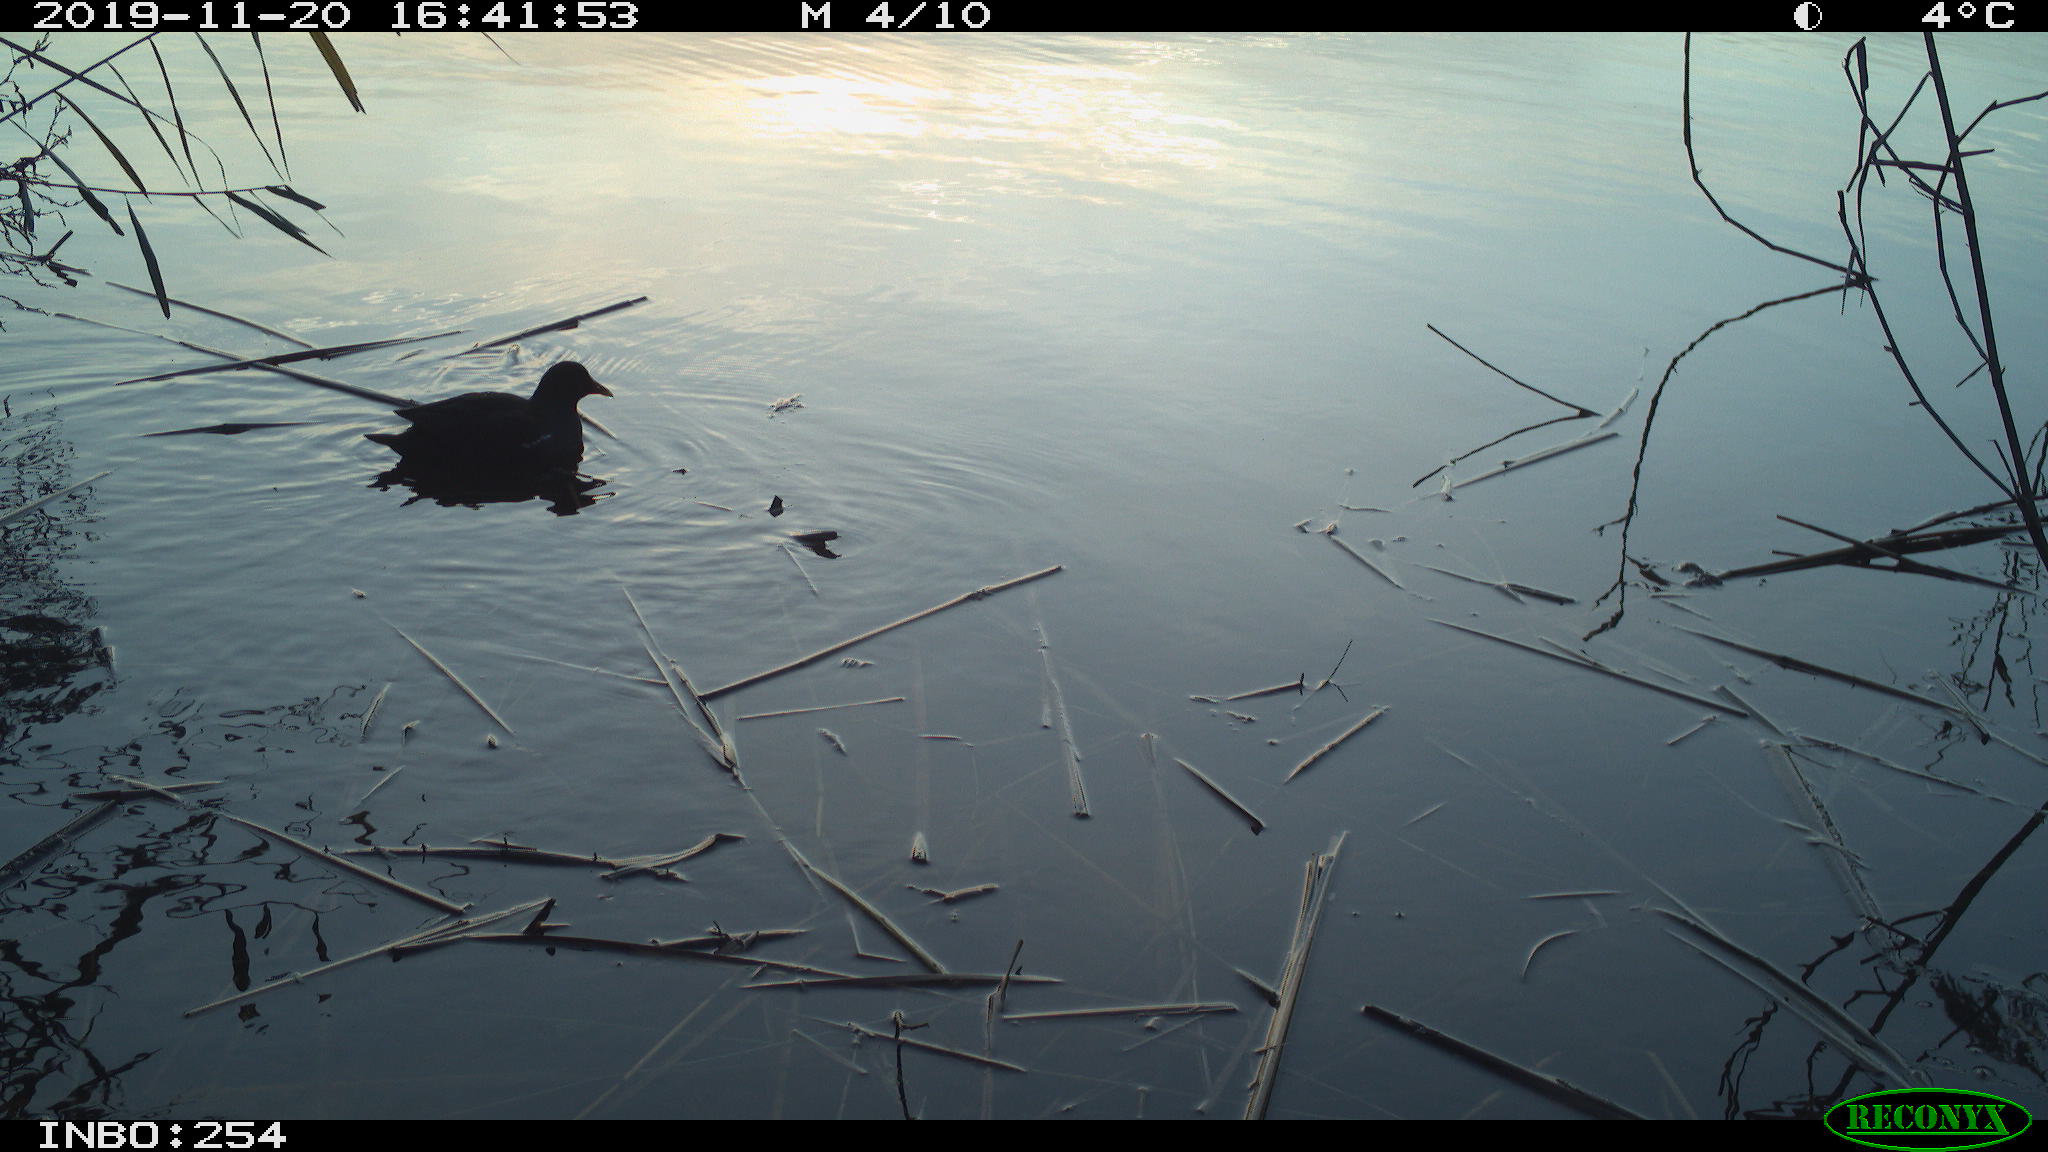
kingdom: Animalia
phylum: Chordata
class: Aves
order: Gruiformes
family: Rallidae
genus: Gallinula
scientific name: Gallinula chloropus
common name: Common moorhen
